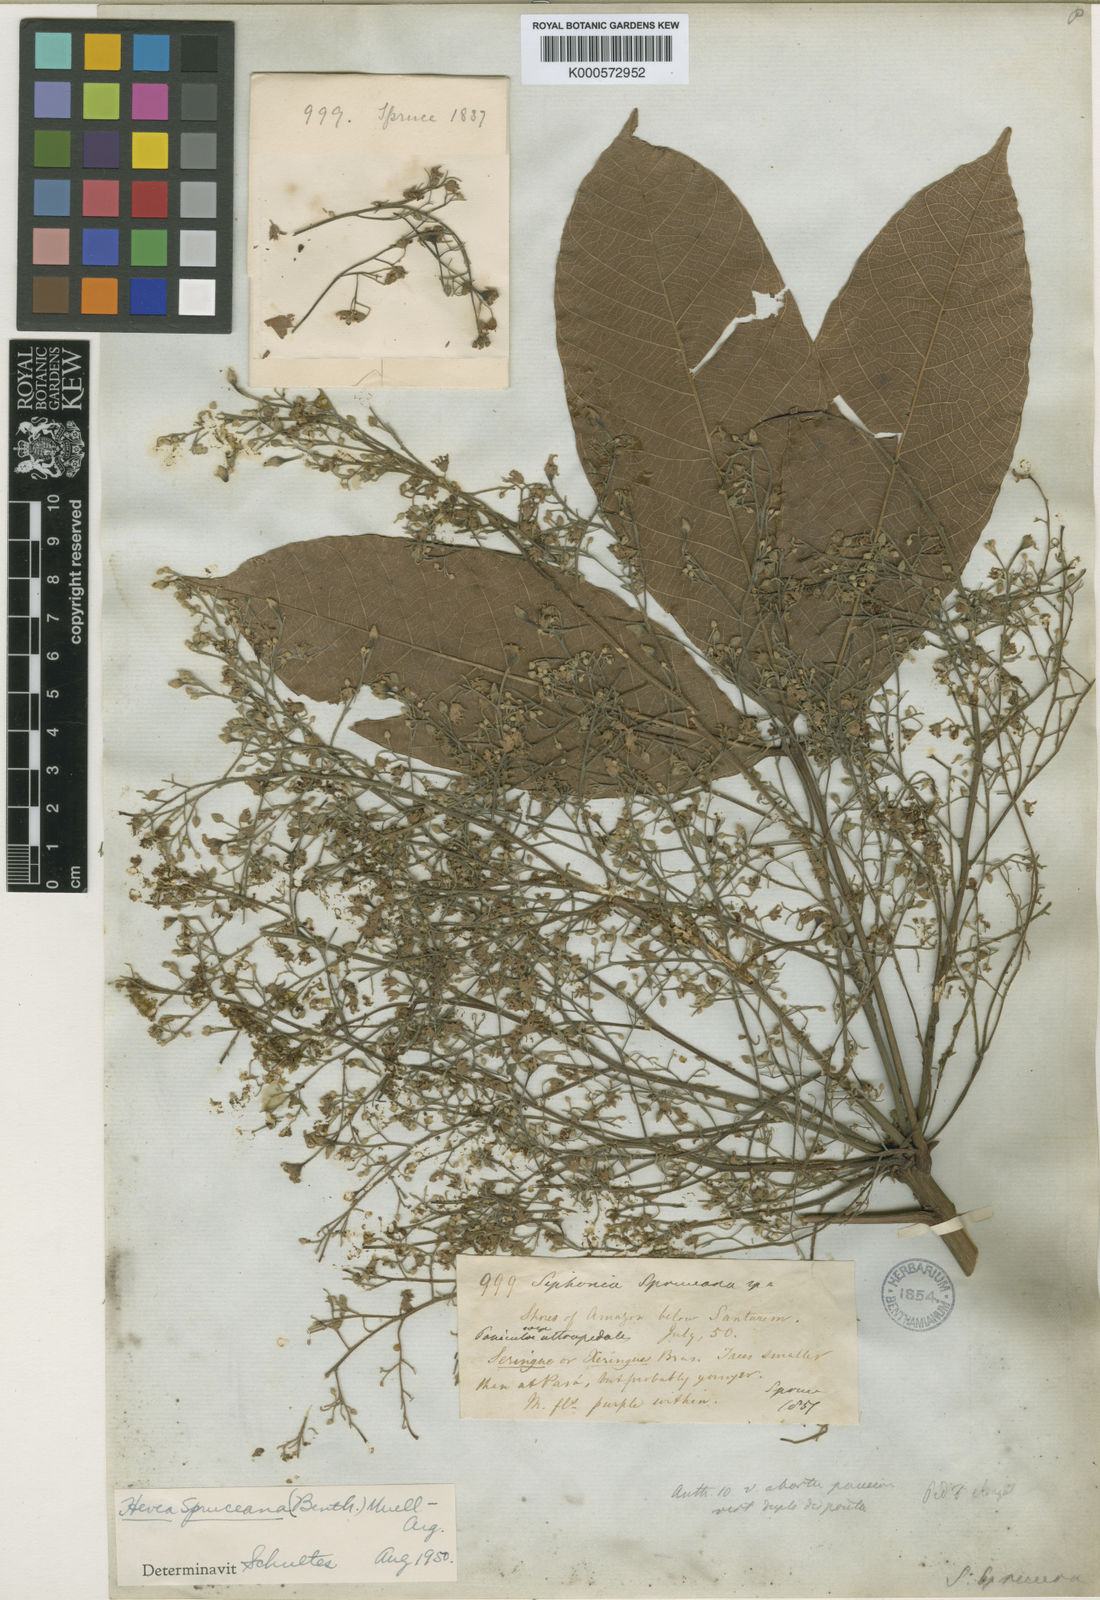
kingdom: Plantae
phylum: Tracheophyta
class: Magnoliopsida
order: Malpighiales
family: Euphorbiaceae
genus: Hevea
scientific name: Hevea
